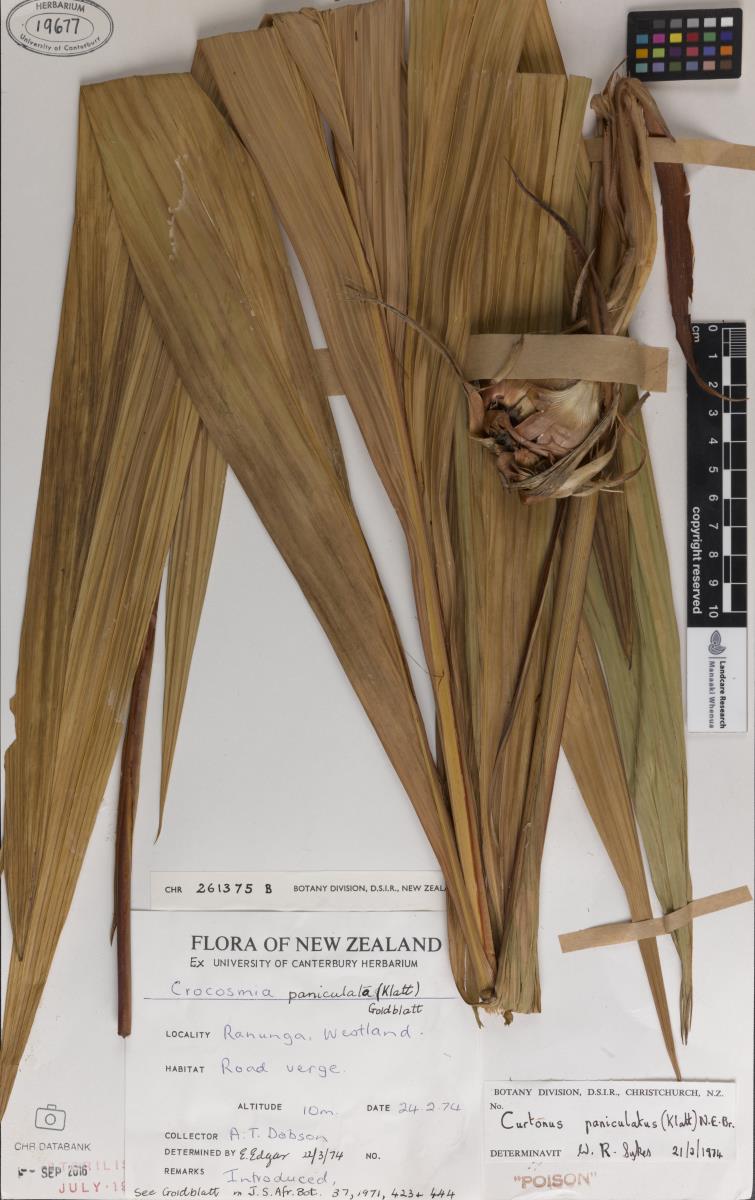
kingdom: Plantae
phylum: Tracheophyta
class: Liliopsida
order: Asparagales
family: Iridaceae
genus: Crocosmia
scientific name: Crocosmia paniculata
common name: Aunt eliza
